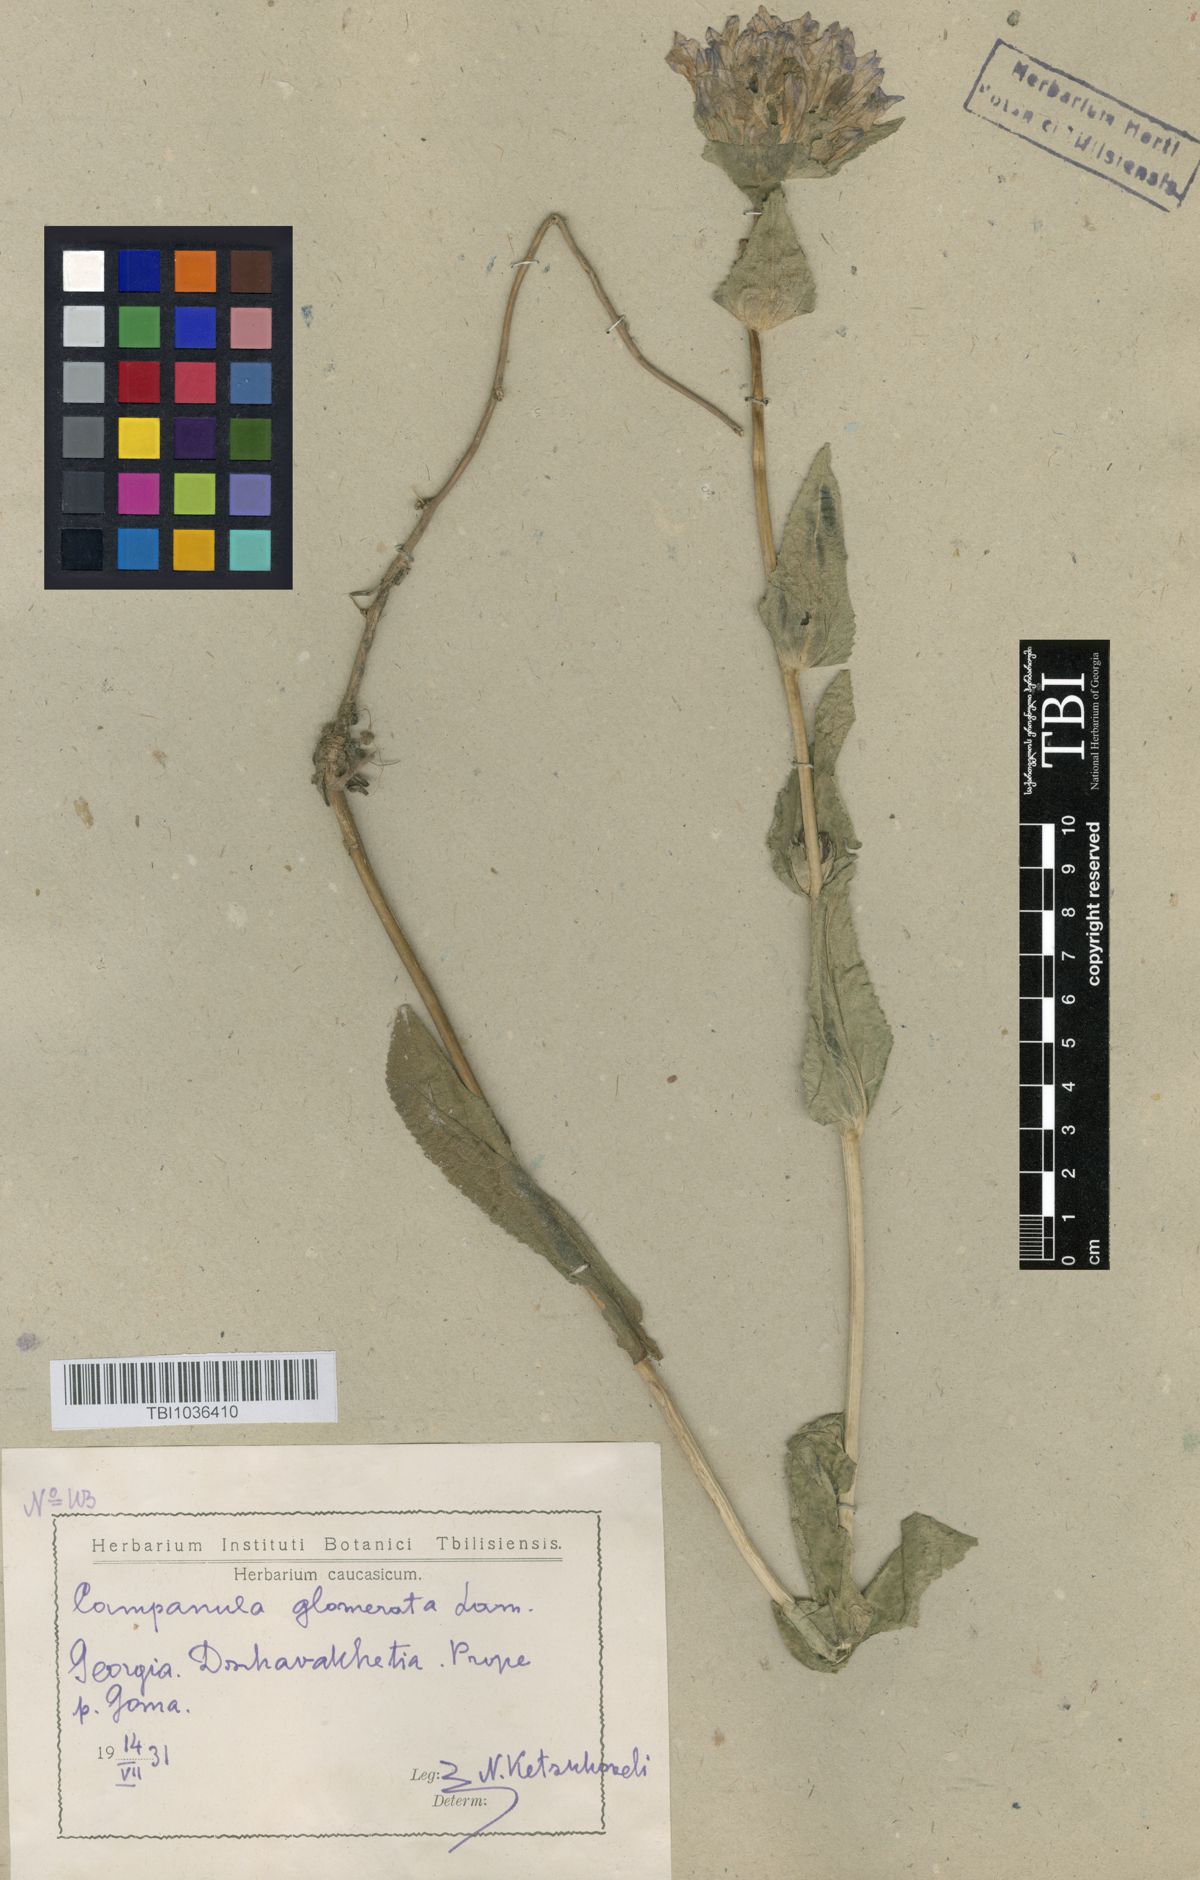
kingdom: Plantae
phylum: Tracheophyta
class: Magnoliopsida
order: Asterales
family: Campanulaceae
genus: Campanula
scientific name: Campanula glomerata
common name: Clustered bellflower
